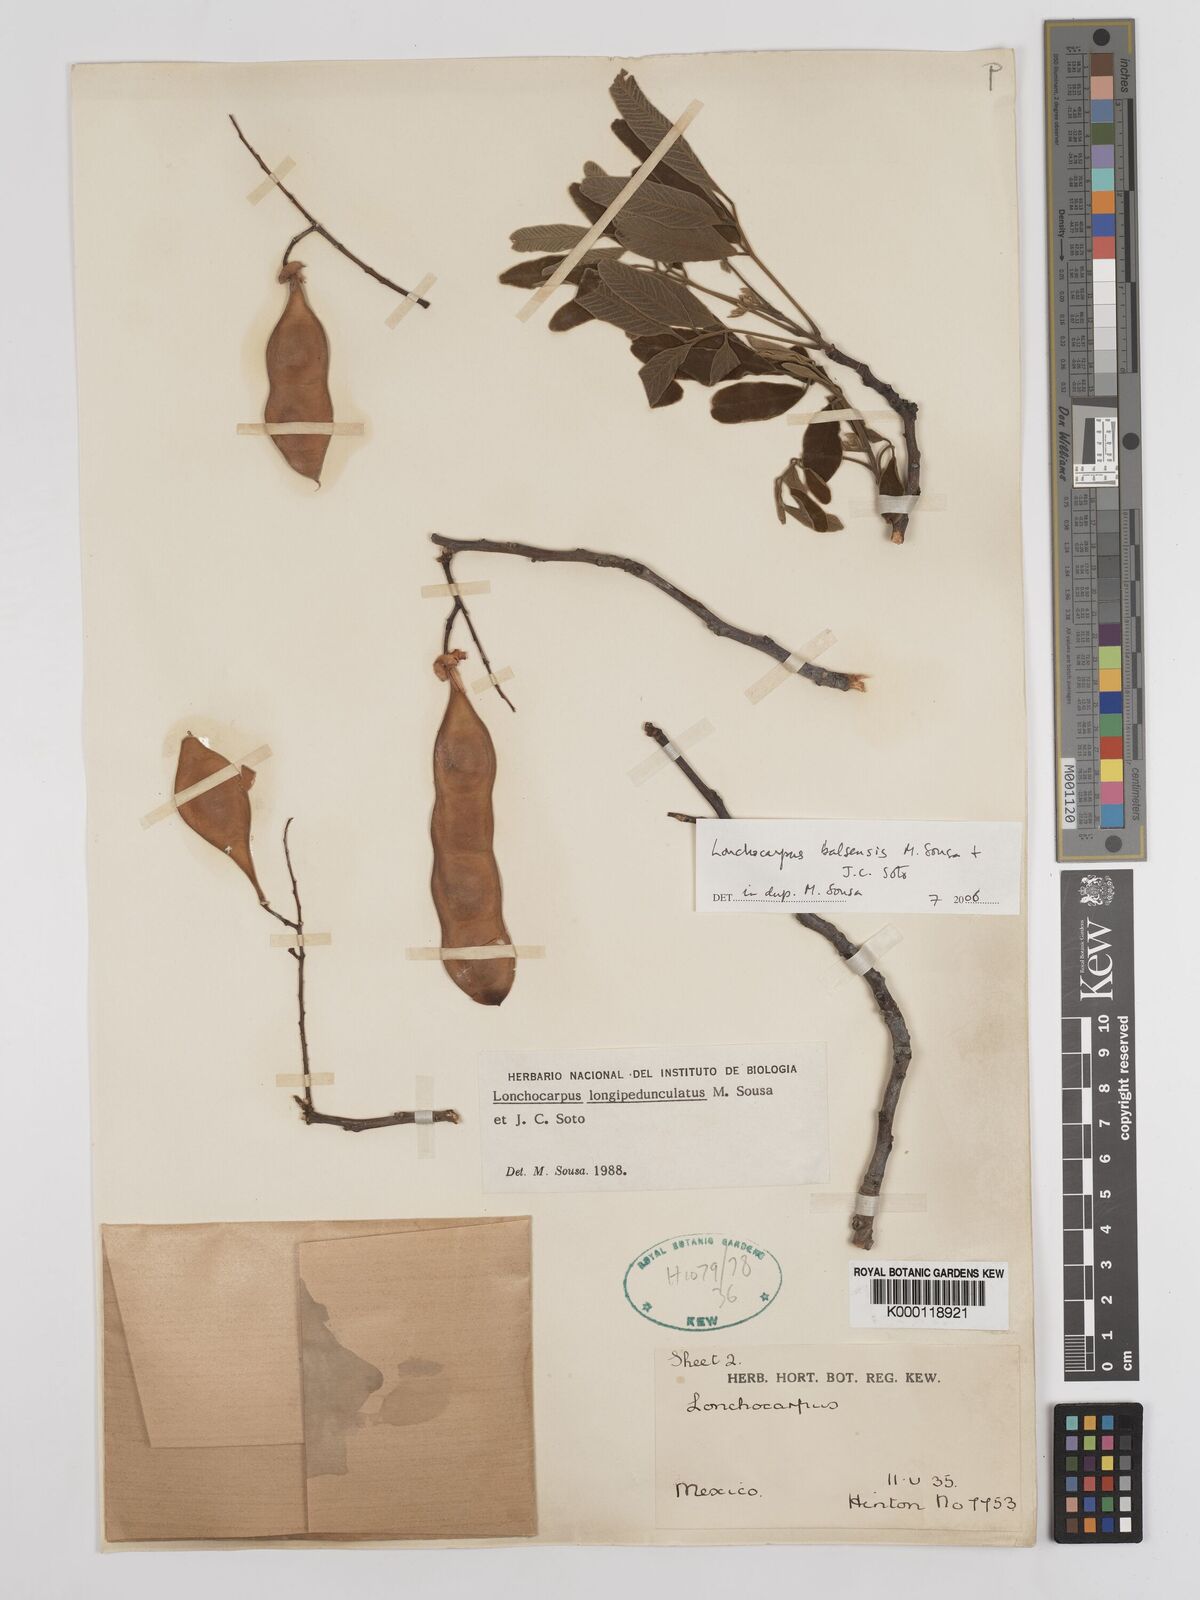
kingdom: Plantae
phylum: Tracheophyta
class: Magnoliopsida
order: Fabales
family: Fabaceae
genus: Lonchocarpus
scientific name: Lonchocarpus balsensis
